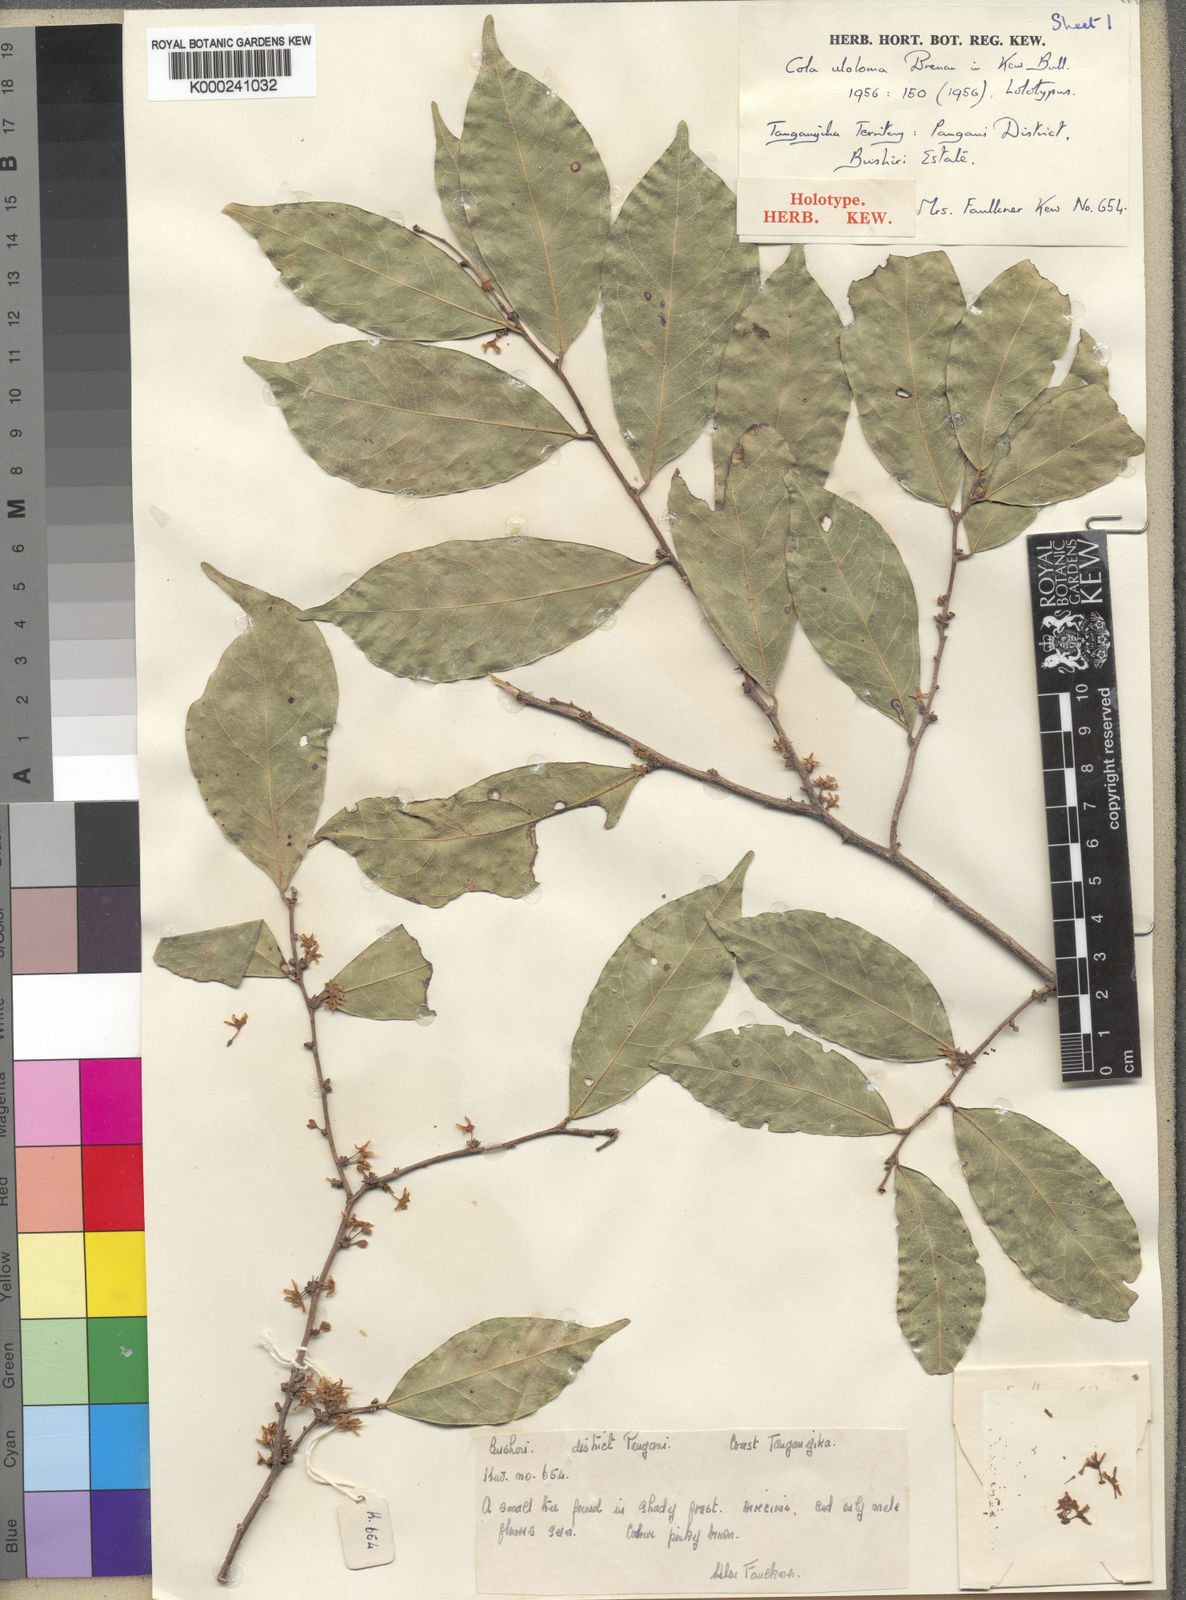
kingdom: Plantae
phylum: Tracheophyta
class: Magnoliopsida
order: Malvales
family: Malvaceae
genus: Cola
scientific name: Cola uloloma
